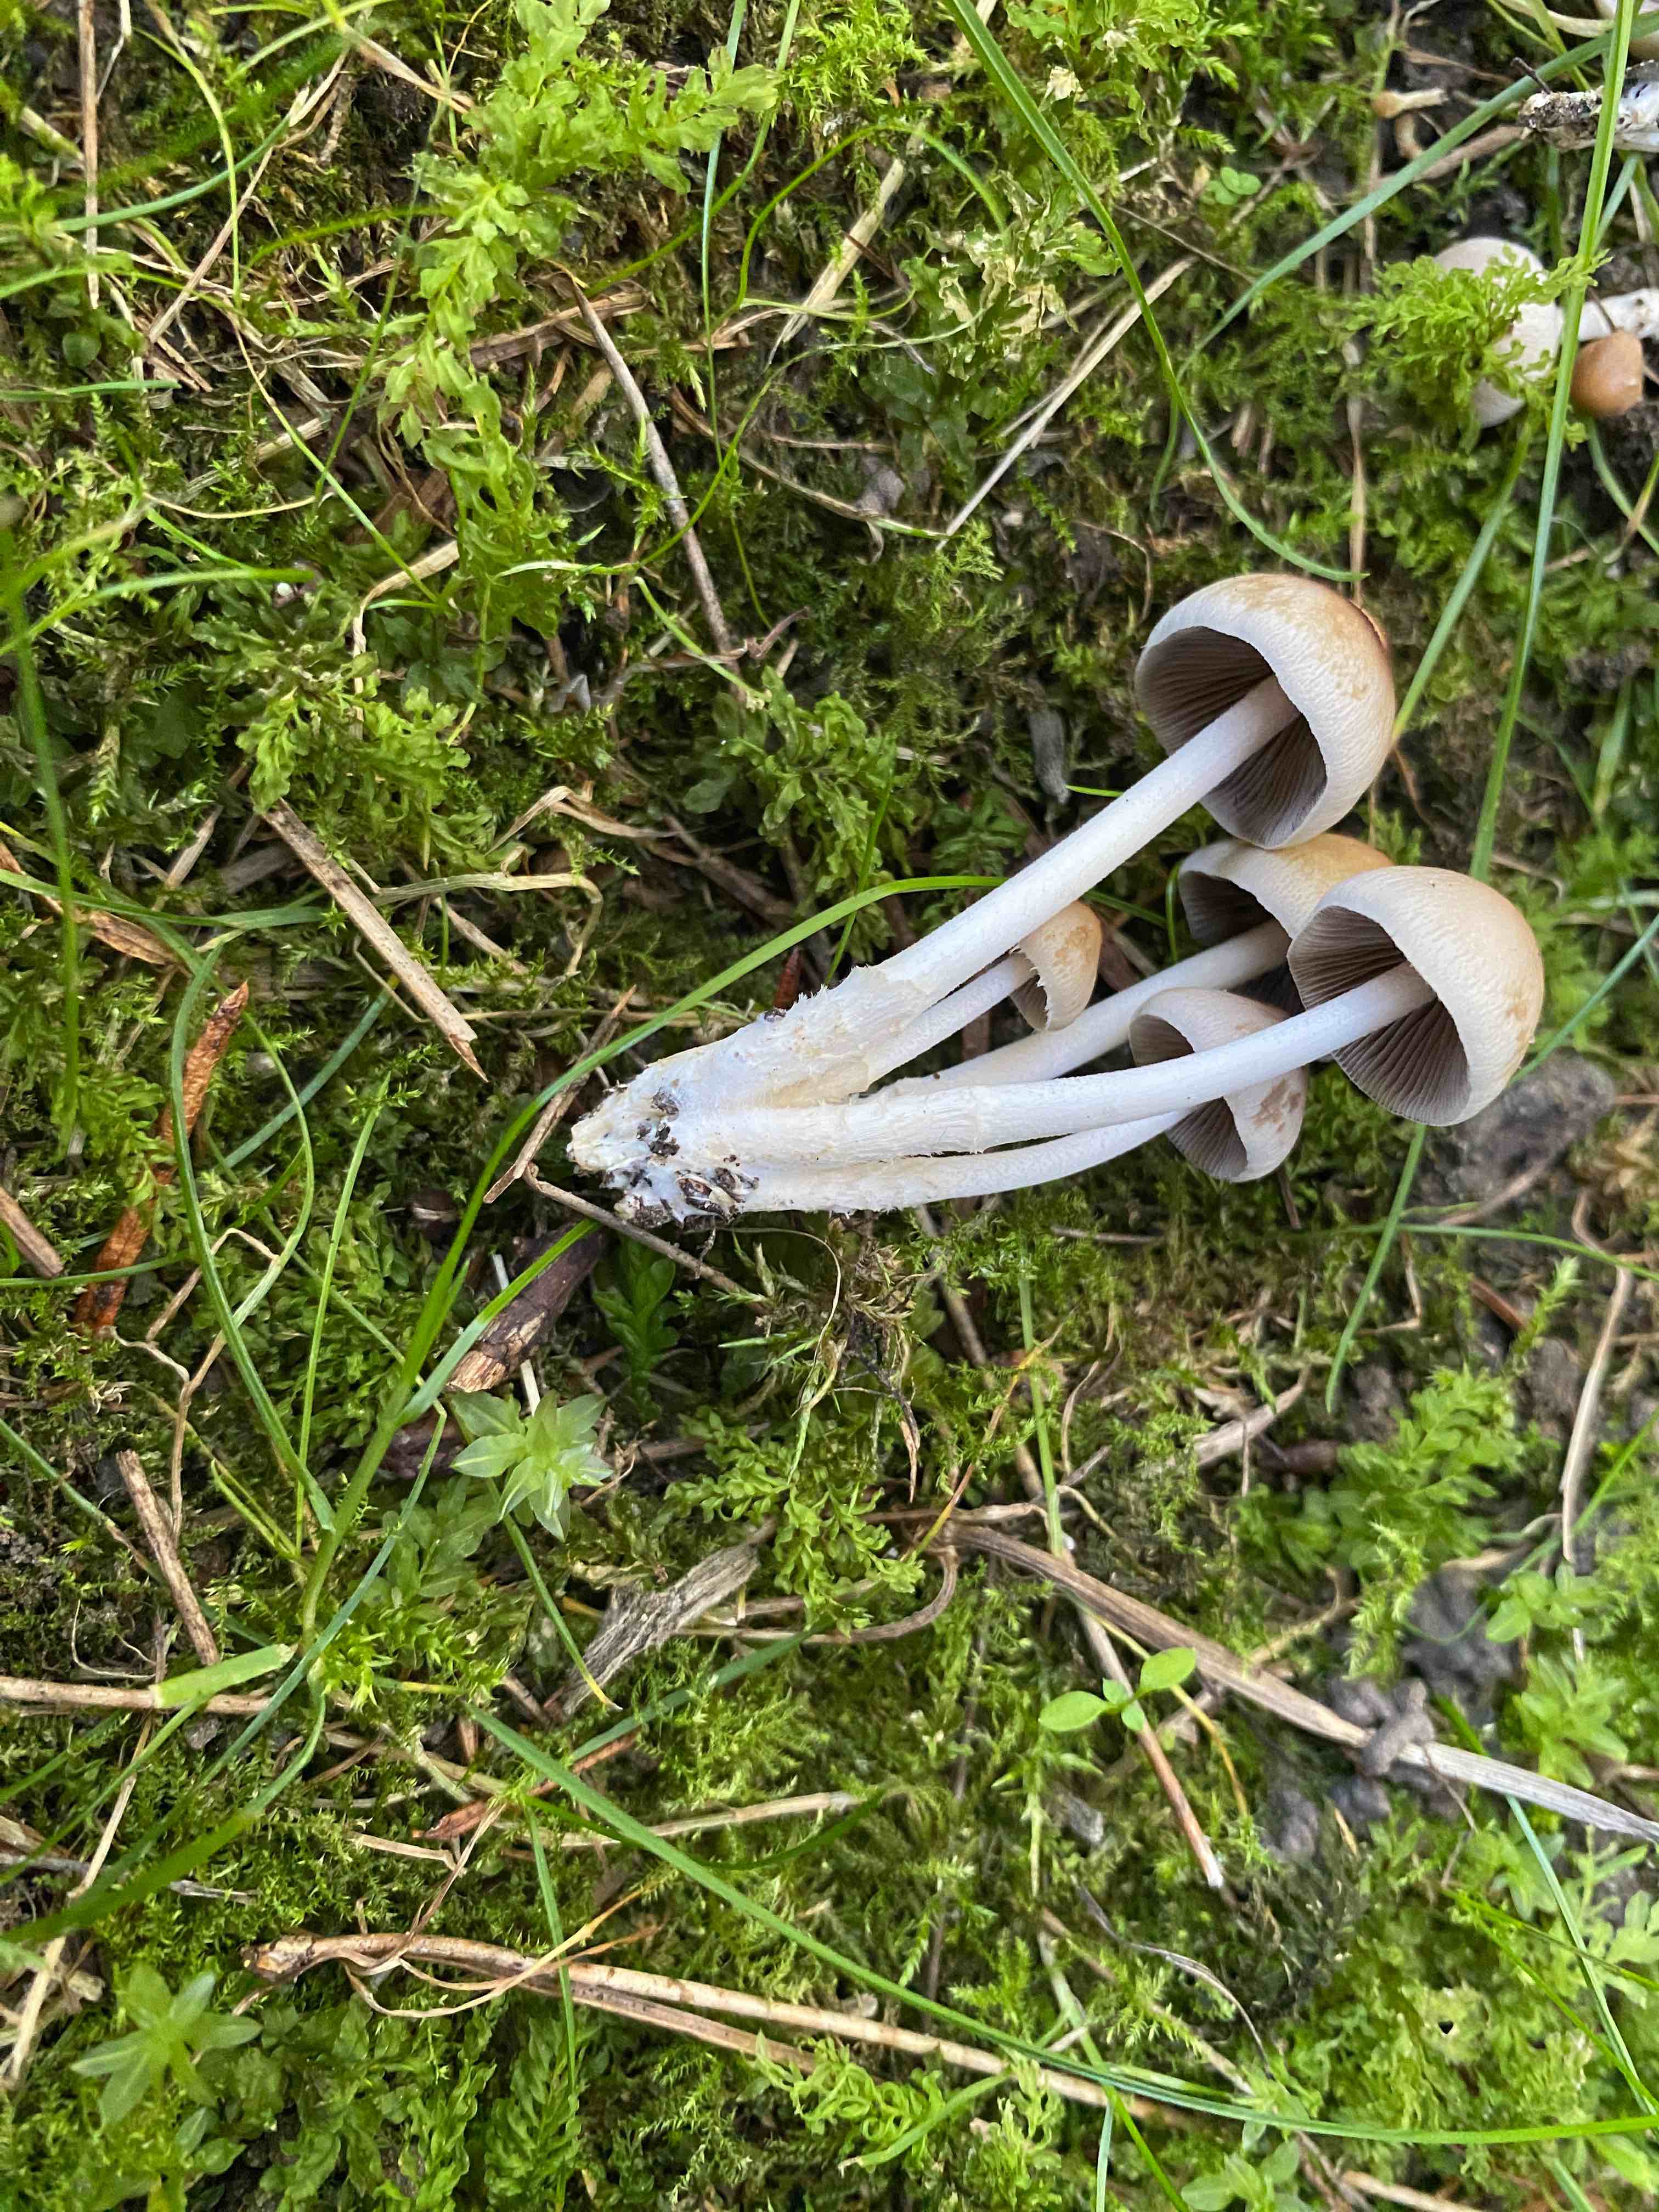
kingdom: Fungi
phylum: Basidiomycota
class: Agaricomycetes
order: Agaricales
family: Psathyrellaceae
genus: Britzelmayria
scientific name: Britzelmayria multipedata
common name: knippe-mørkhat
